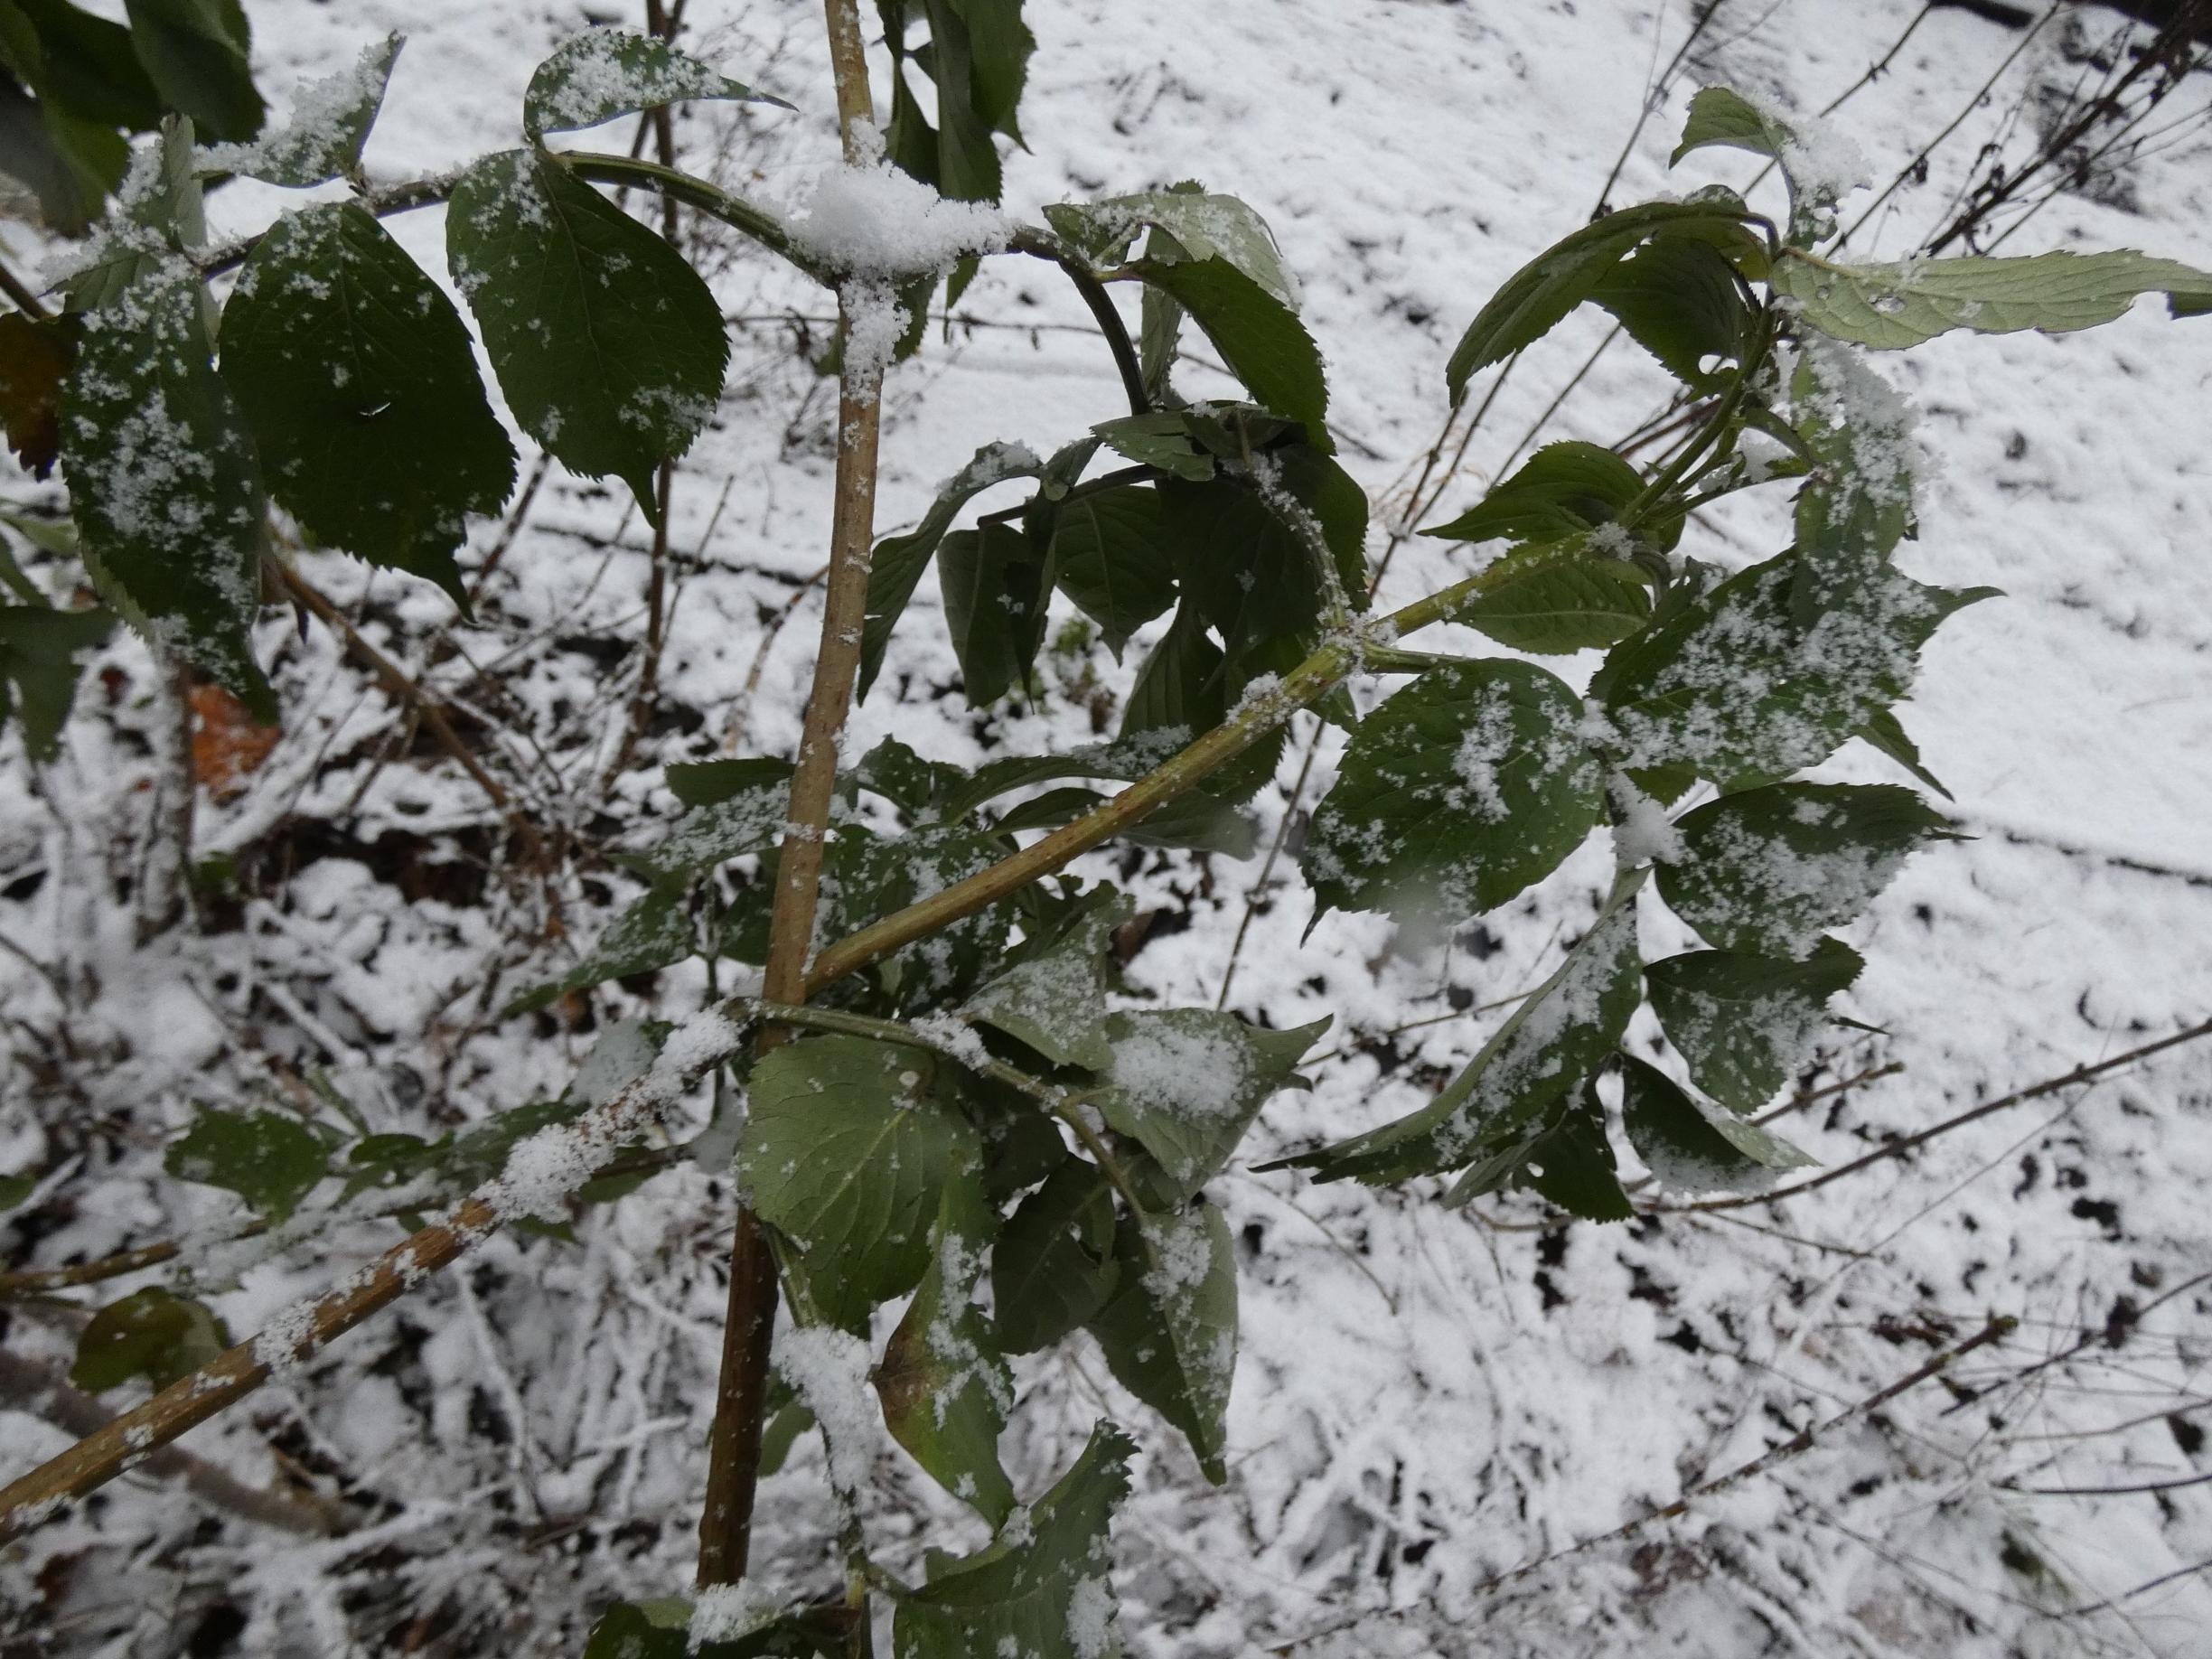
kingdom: Plantae
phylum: Tracheophyta
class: Magnoliopsida
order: Dipsacales
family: Viburnaceae
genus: Sambucus
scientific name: Sambucus nigra
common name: Almindelig hyld
